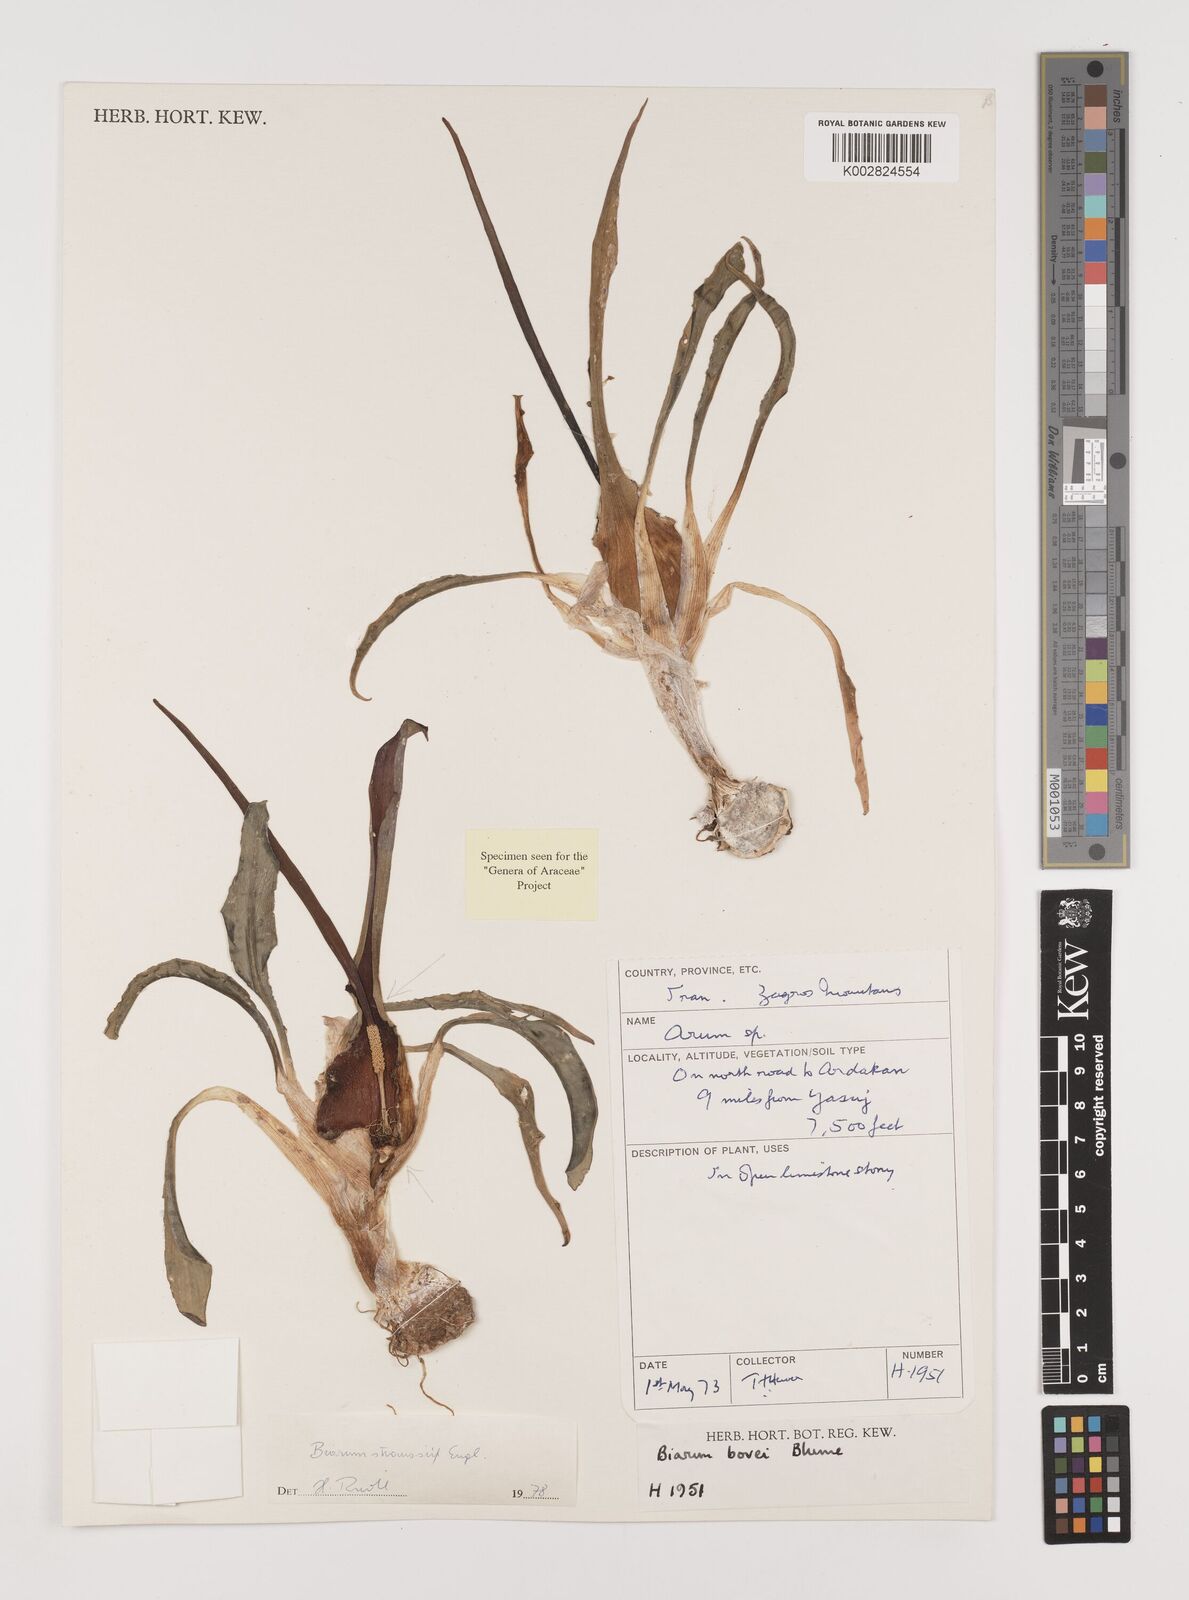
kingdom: Plantae
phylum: Tracheophyta
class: Liliopsida
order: Alismatales
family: Araceae
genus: Biarum
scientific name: Biarum straussii
